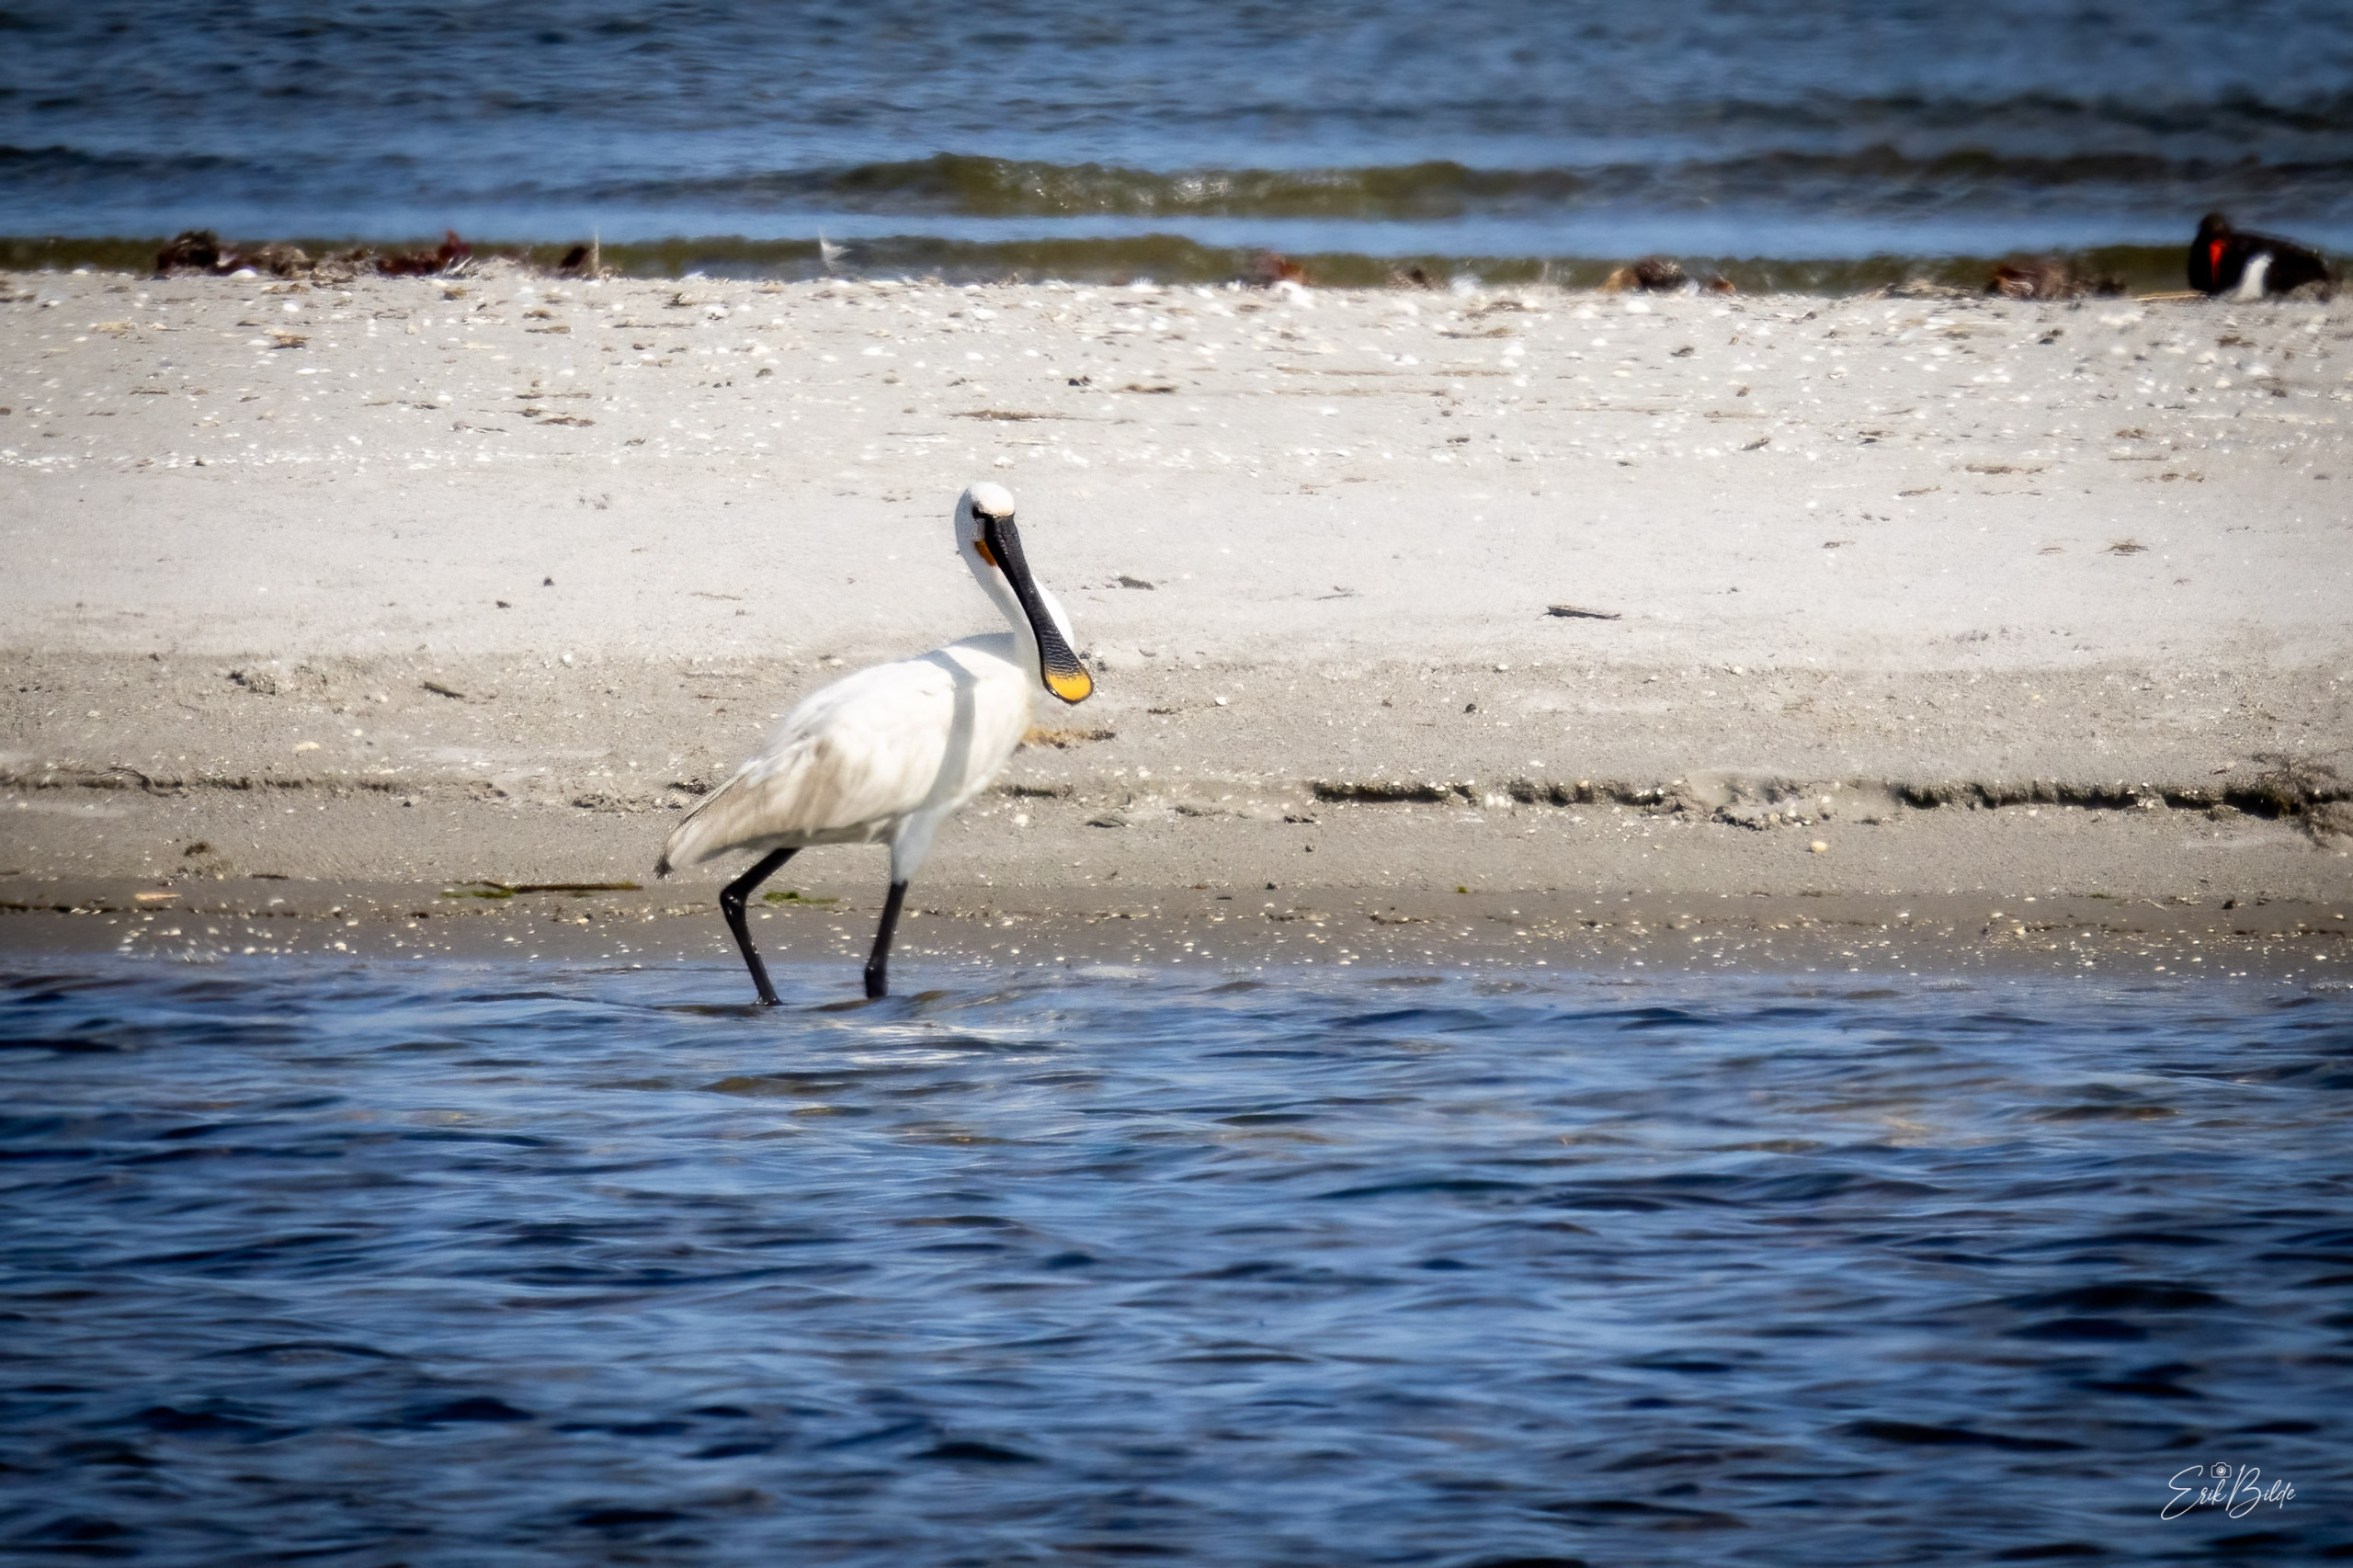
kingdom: Animalia
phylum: Chordata
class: Aves
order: Pelecaniformes
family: Threskiornithidae
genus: Platalea
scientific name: Platalea leucorodia
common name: Skestork
